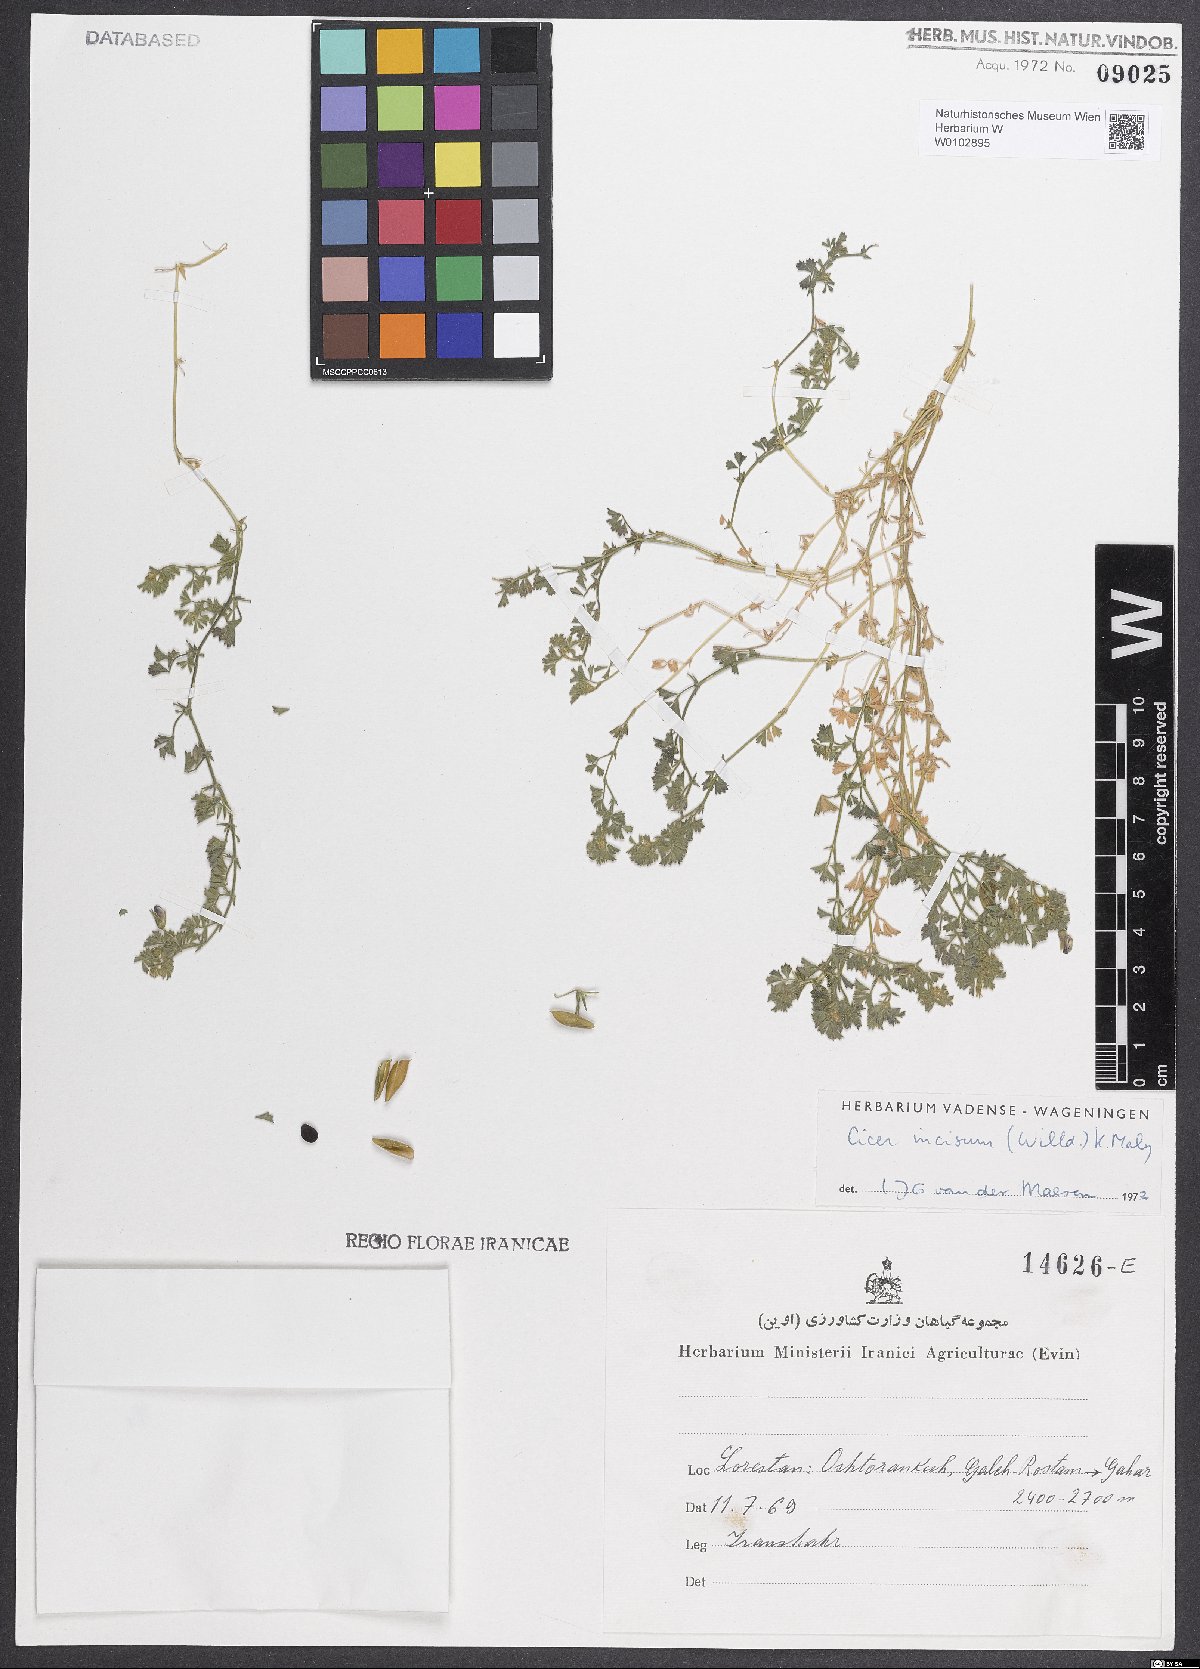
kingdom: Plantae
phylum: Tracheophyta
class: Magnoliopsida
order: Fabales
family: Fabaceae
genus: Cicer
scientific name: Cicer incisum
